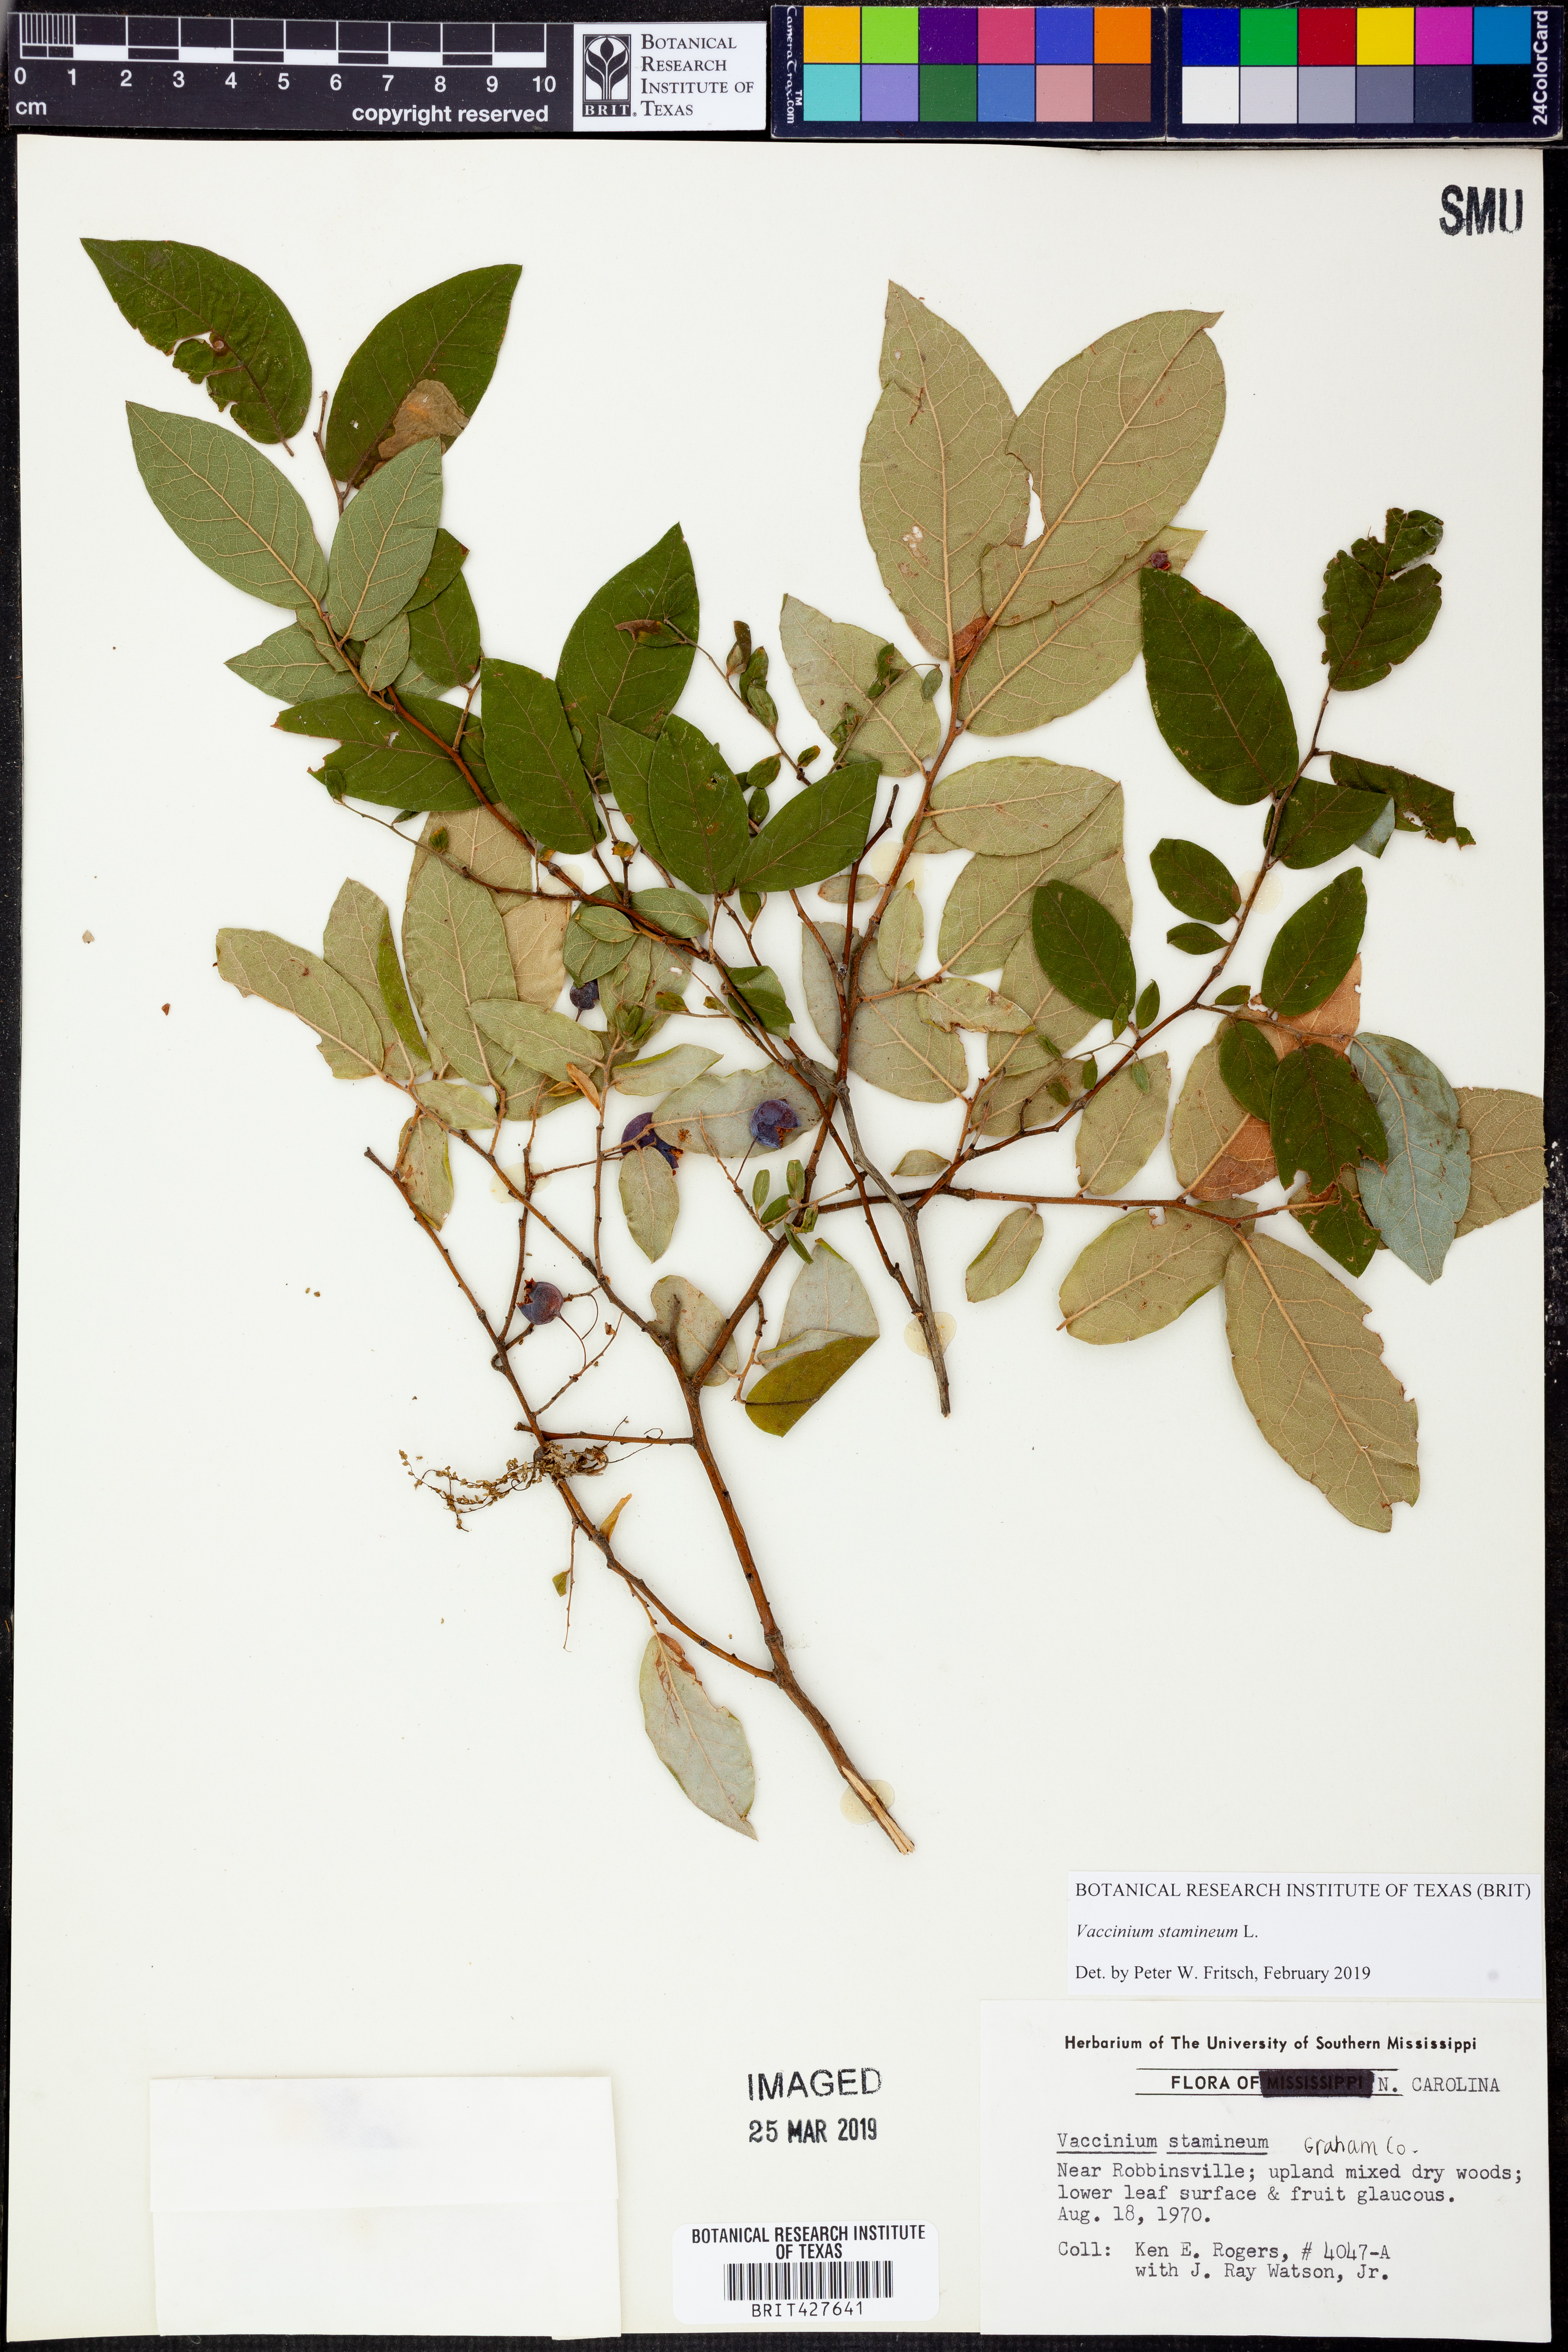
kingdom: Plantae
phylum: Tracheophyta
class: Magnoliopsida
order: Ericales
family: Ericaceae
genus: Vaccinium
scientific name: Vaccinium stamineum
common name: Deerberry
